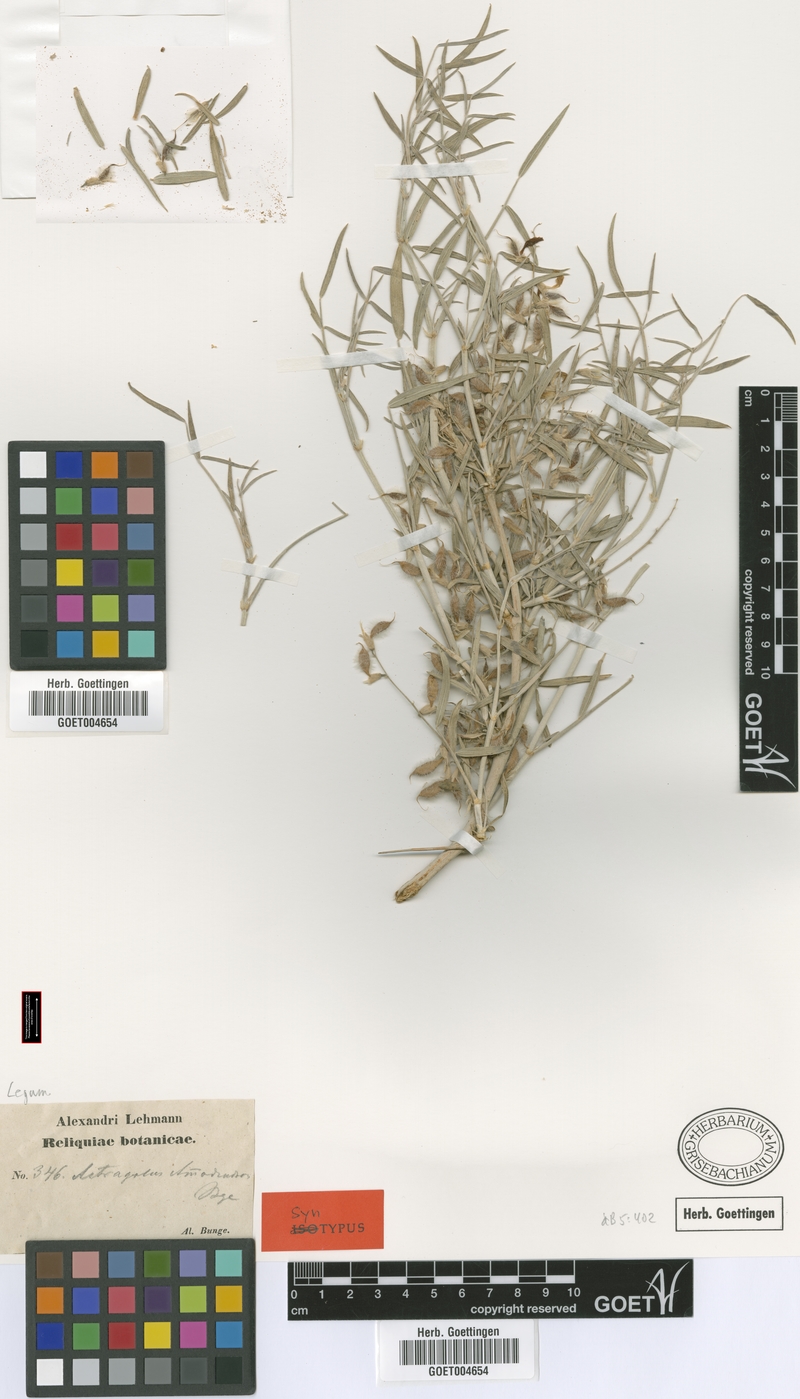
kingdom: Plantae
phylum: Tracheophyta
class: Magnoliopsida
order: Fabales
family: Fabaceae
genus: Astragalus
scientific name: Astragalus ammodendron
